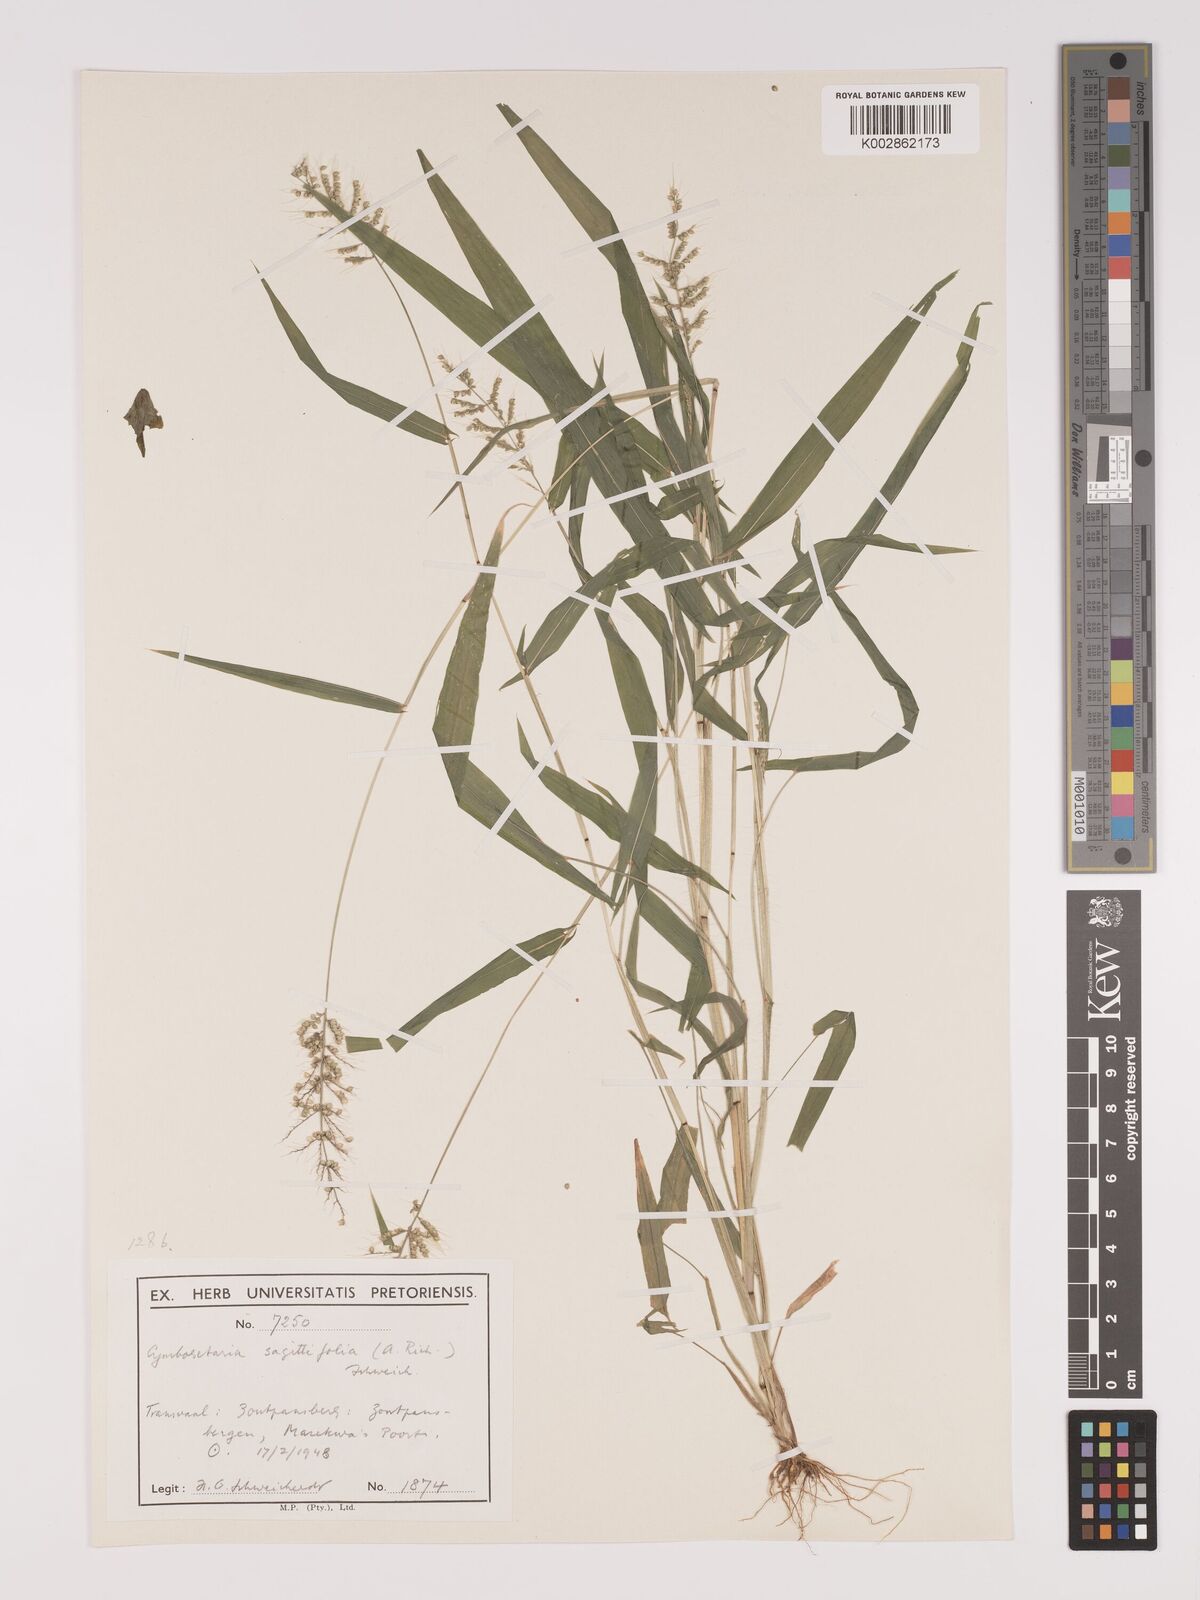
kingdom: Plantae
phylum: Tracheophyta
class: Liliopsida
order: Poales
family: Poaceae
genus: Setaria
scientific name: Setaria sagittifolia
